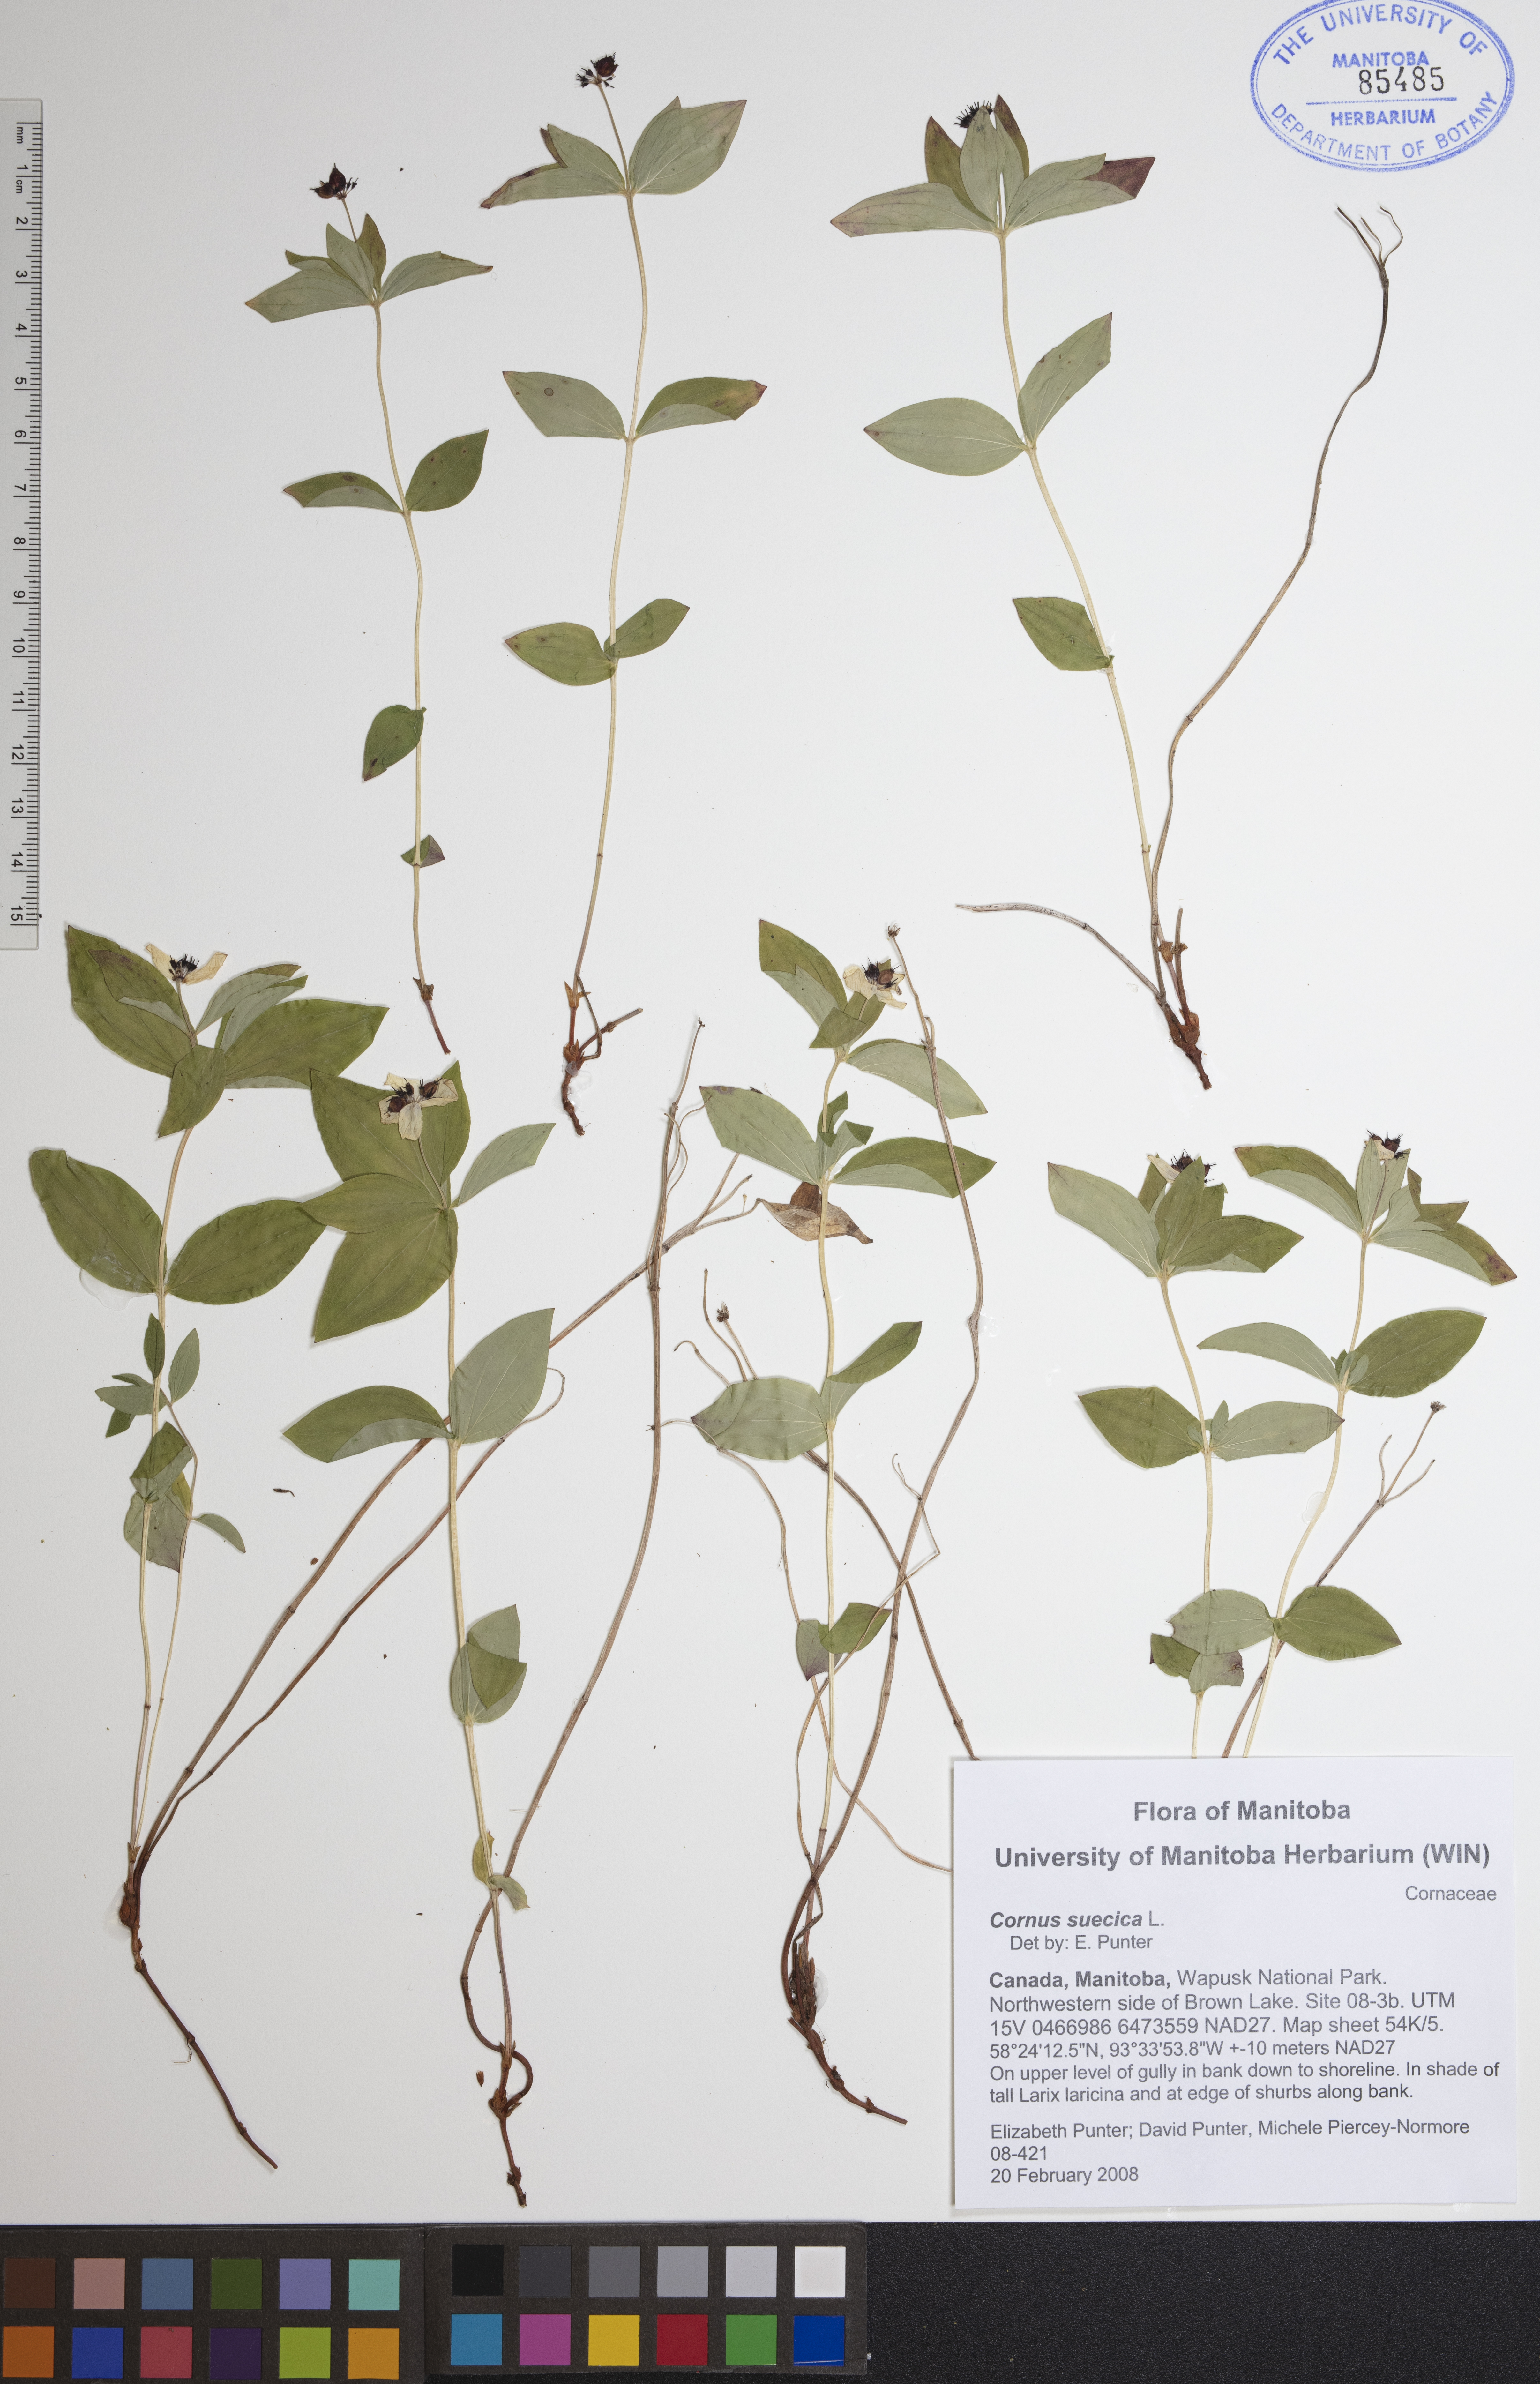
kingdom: Plantae
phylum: Tracheophyta
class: Magnoliopsida
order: Cornales
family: Cornaceae
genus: Cornus
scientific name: Cornus suecica
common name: Dwarf cornel
